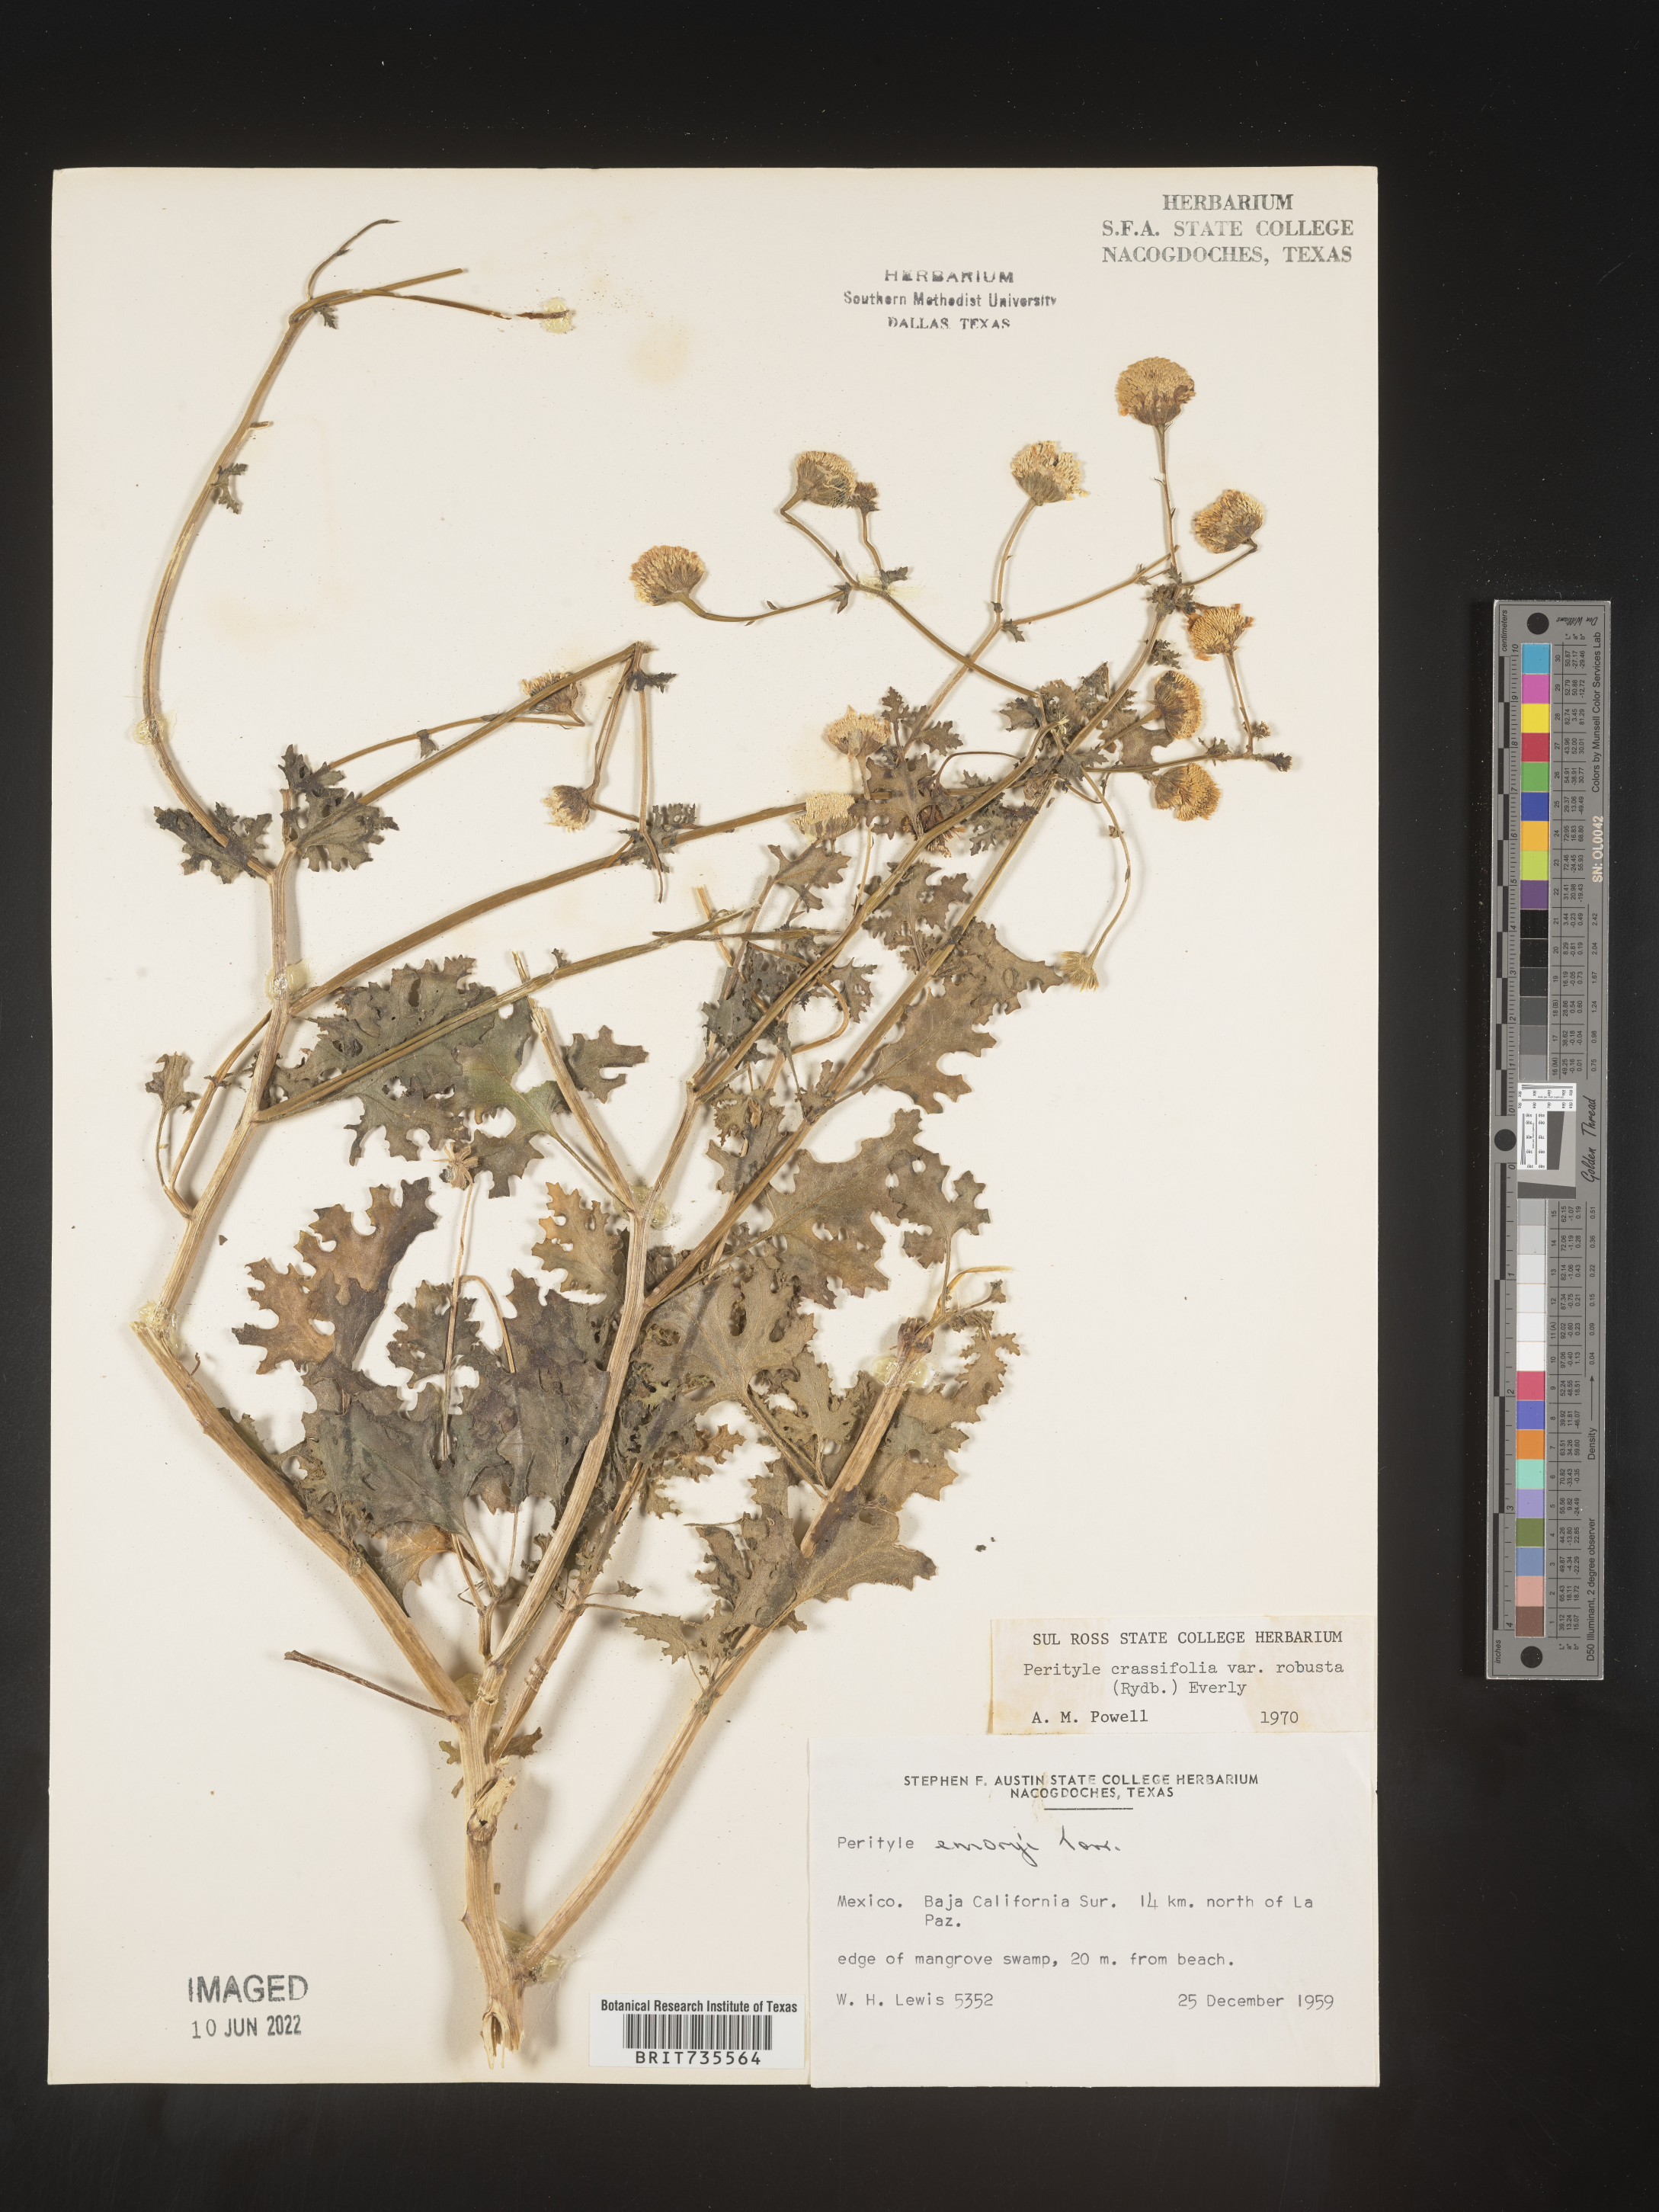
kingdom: Plantae
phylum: Tracheophyta
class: Magnoliopsida
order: Asterales
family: Asteraceae
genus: Perityle
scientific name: Perityle
